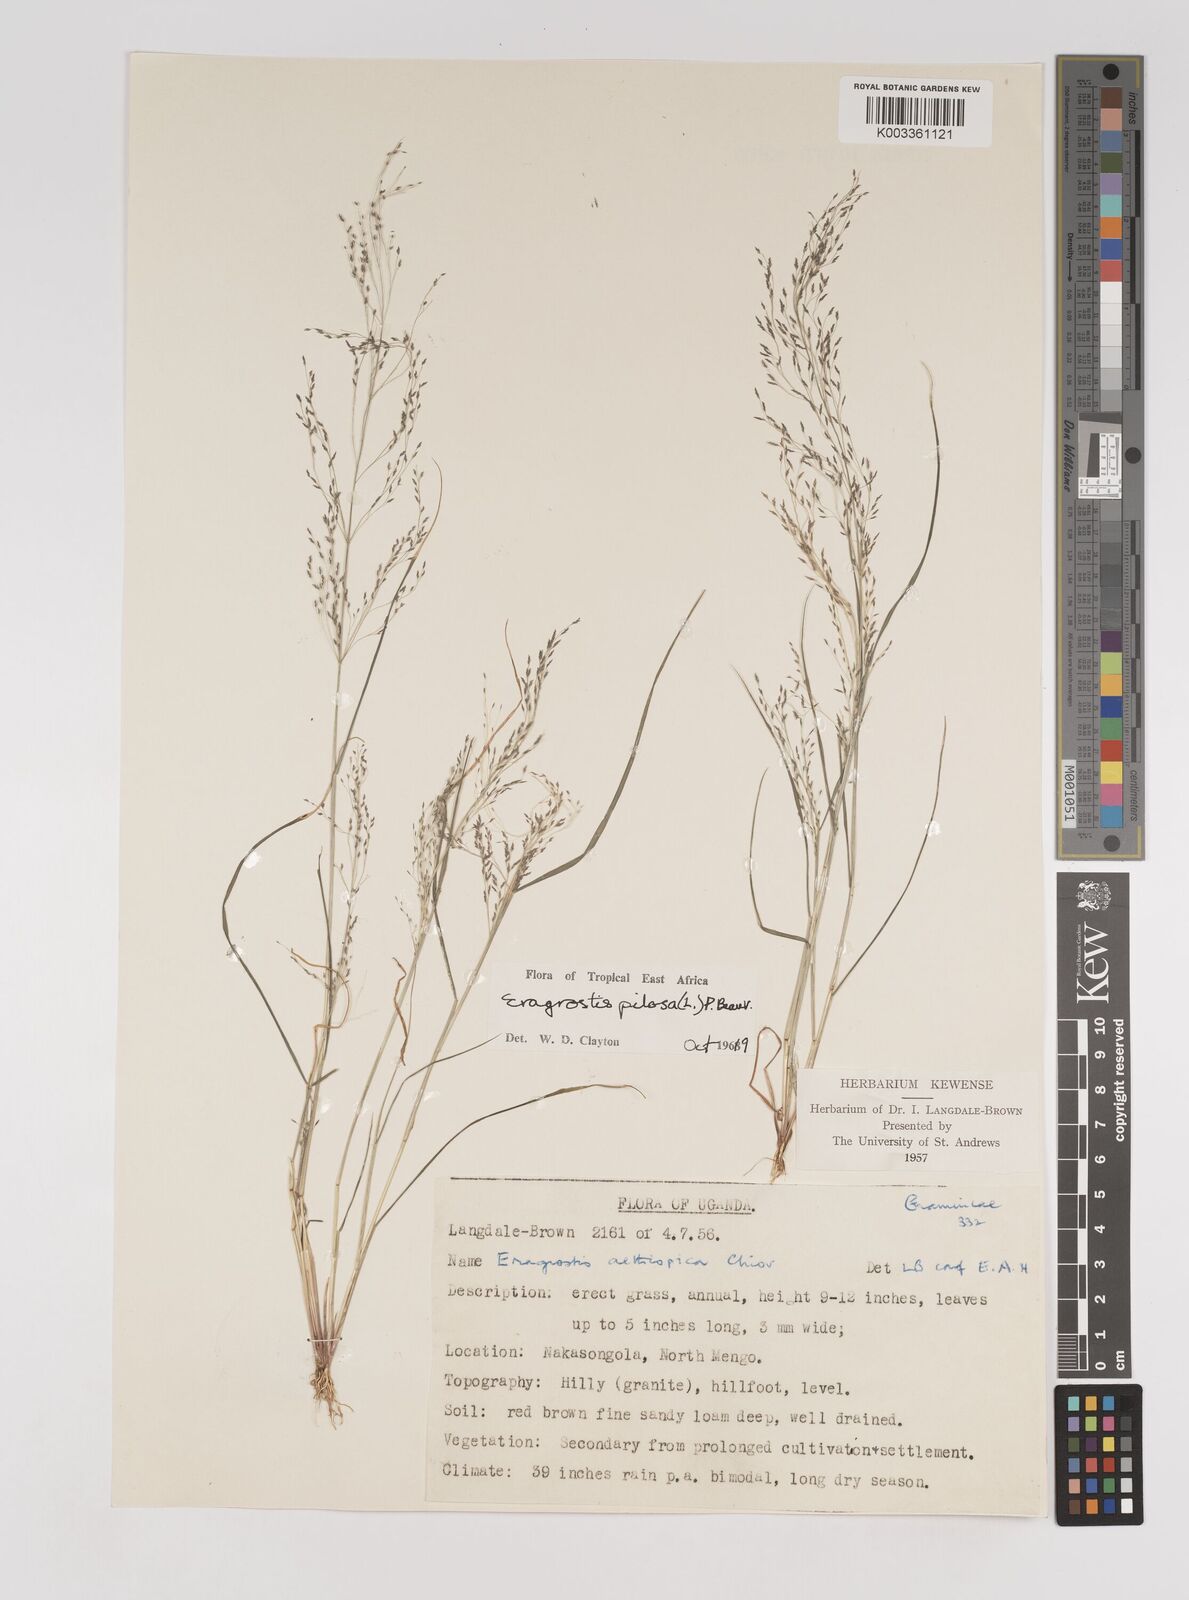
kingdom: Plantae
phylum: Tracheophyta
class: Liliopsida
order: Poales
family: Poaceae
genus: Eragrostis
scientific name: Eragrostis pilosa
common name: Indian lovegrass
